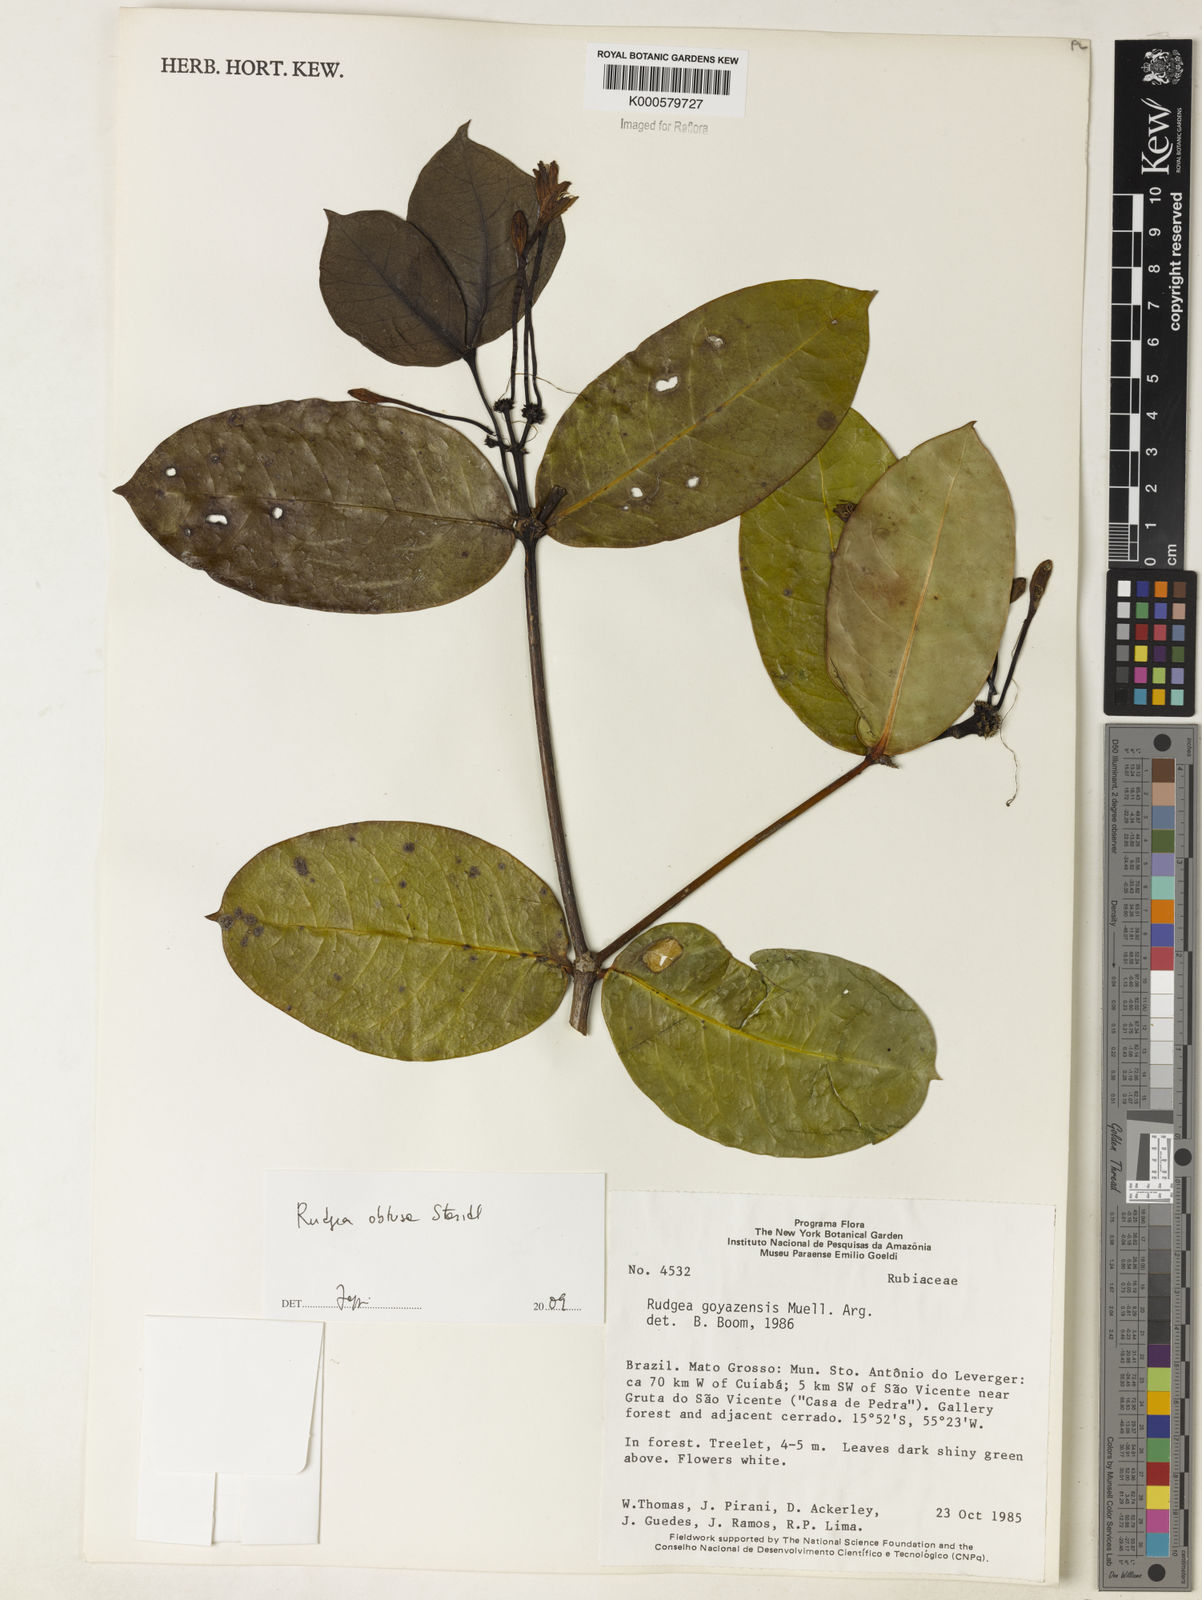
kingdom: Plantae
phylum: Tracheophyta
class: Magnoliopsida
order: Gentianales
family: Rubiaceae
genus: Rudgea
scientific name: Rudgea goyazensis
